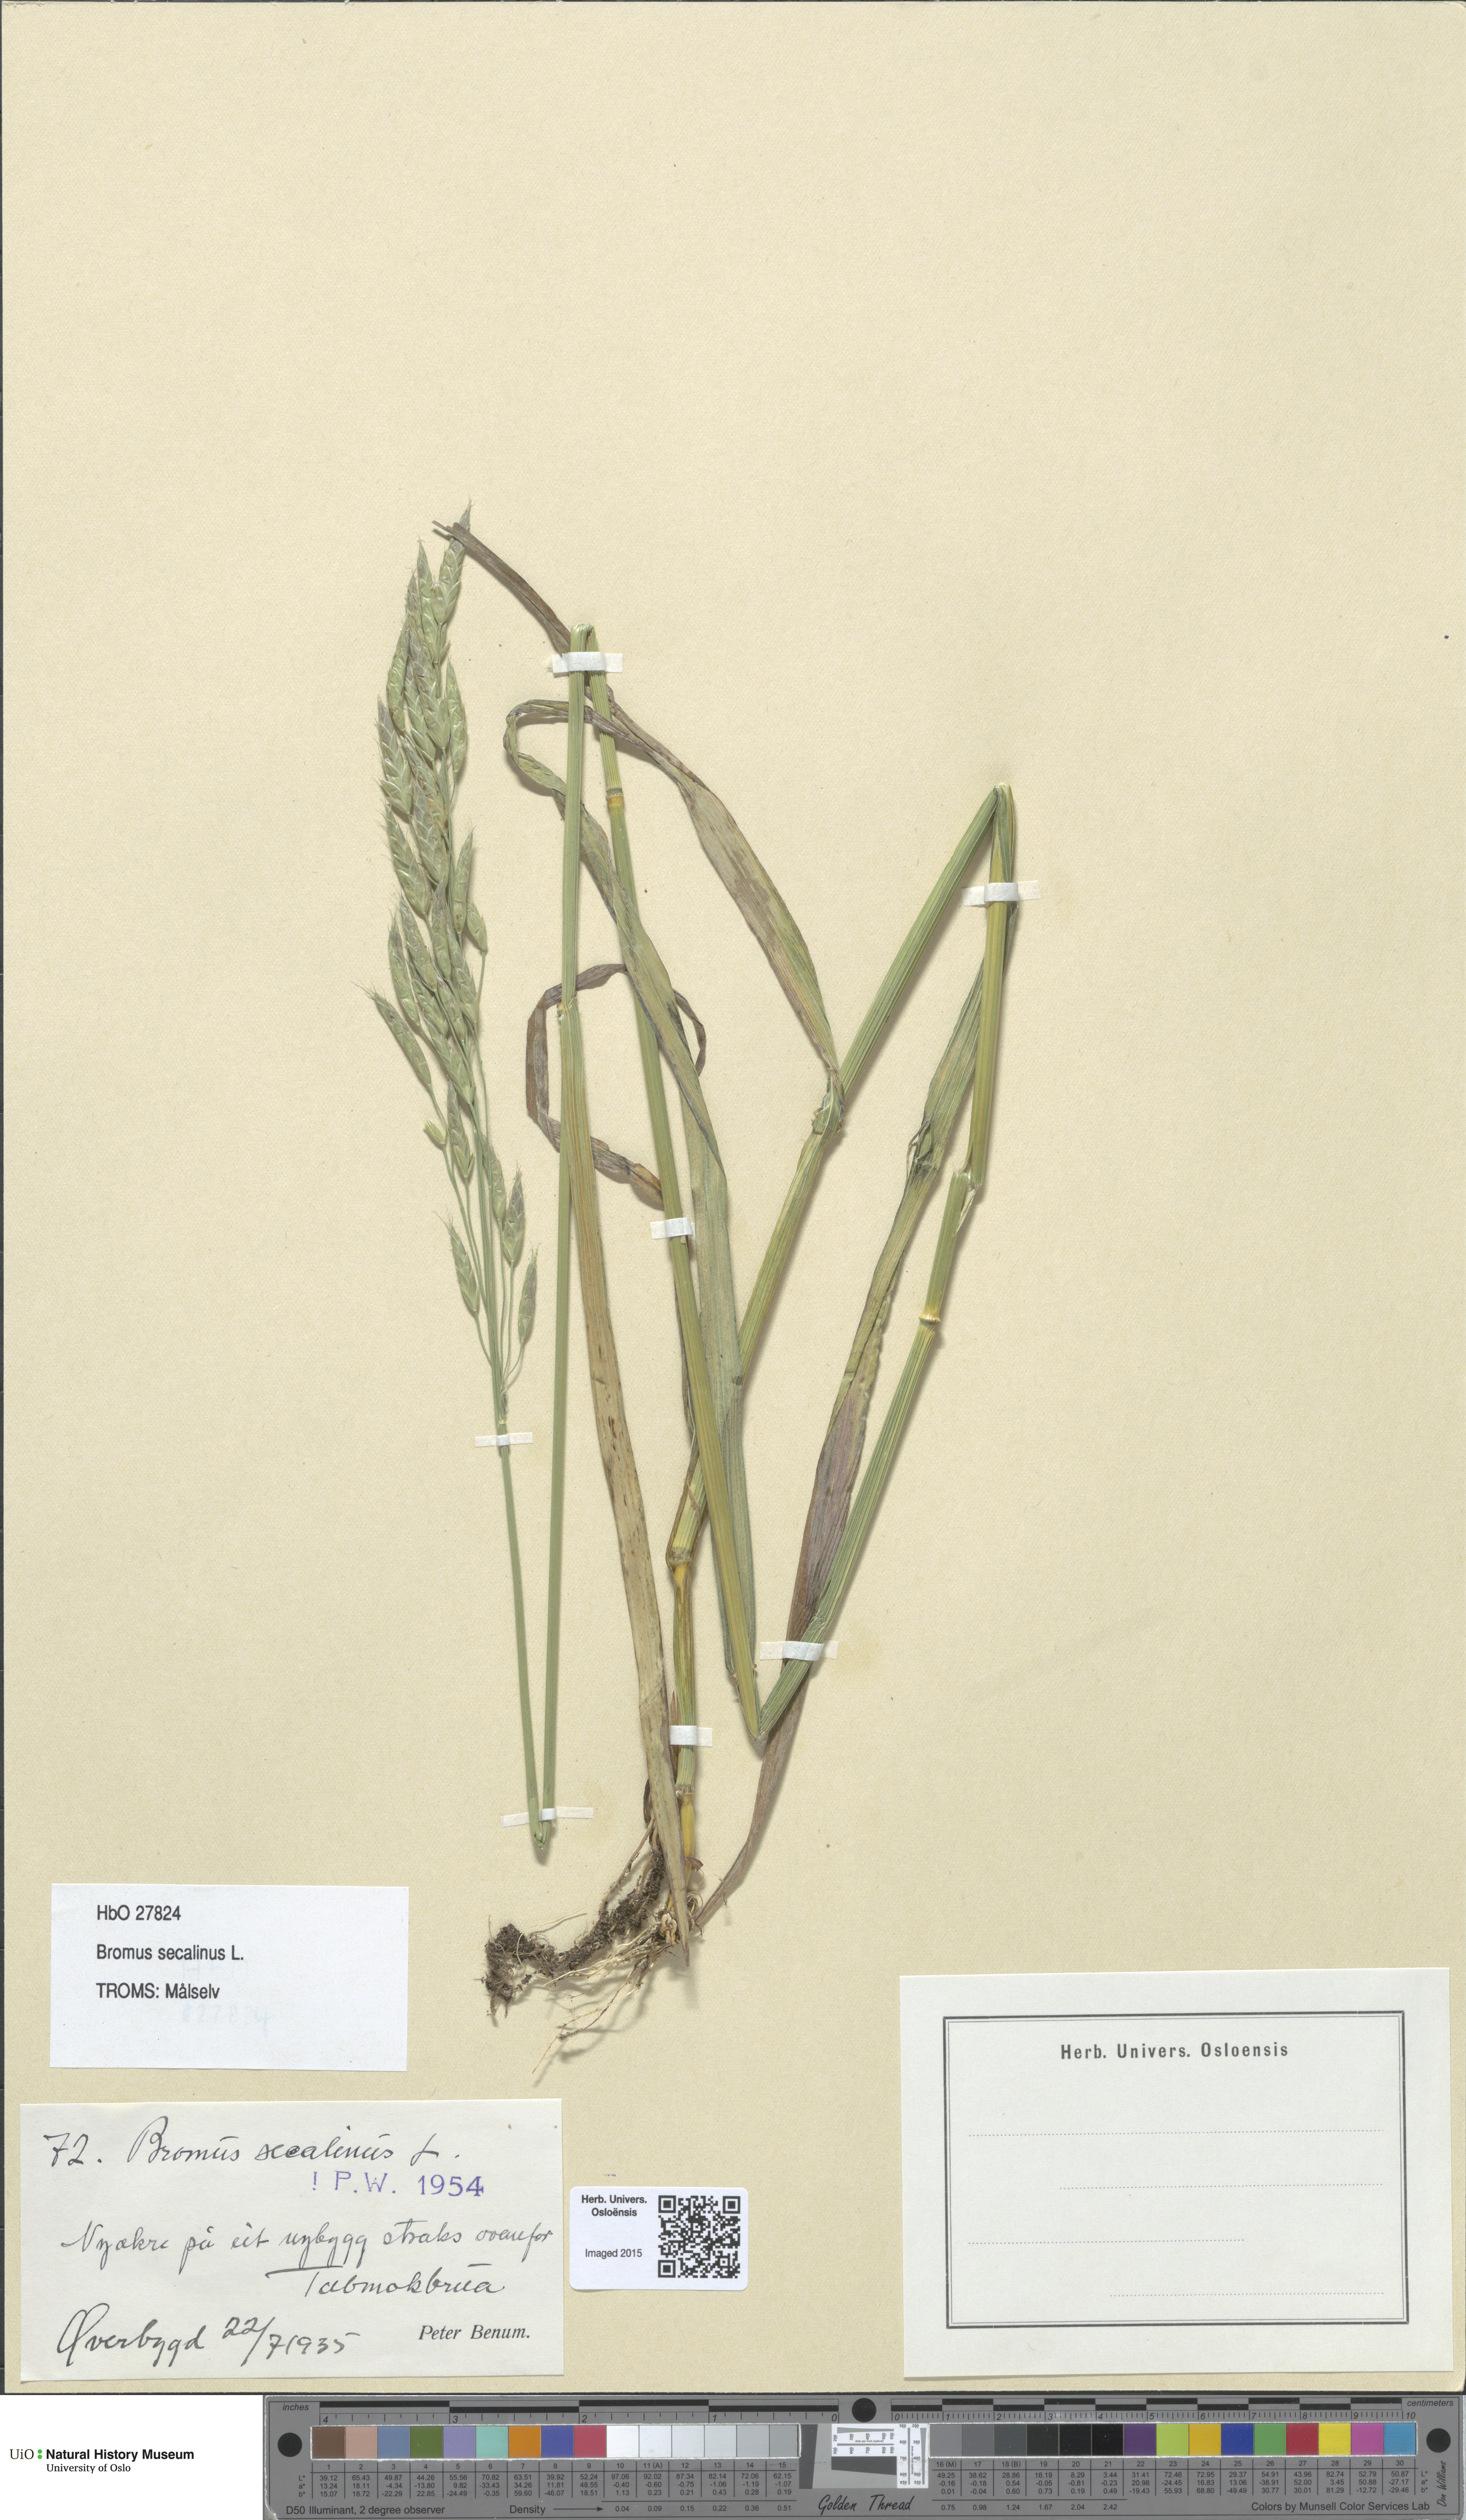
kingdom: Plantae
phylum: Tracheophyta
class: Liliopsida
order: Poales
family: Poaceae
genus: Bromus
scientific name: Bromus secalinus
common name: Rye brome
